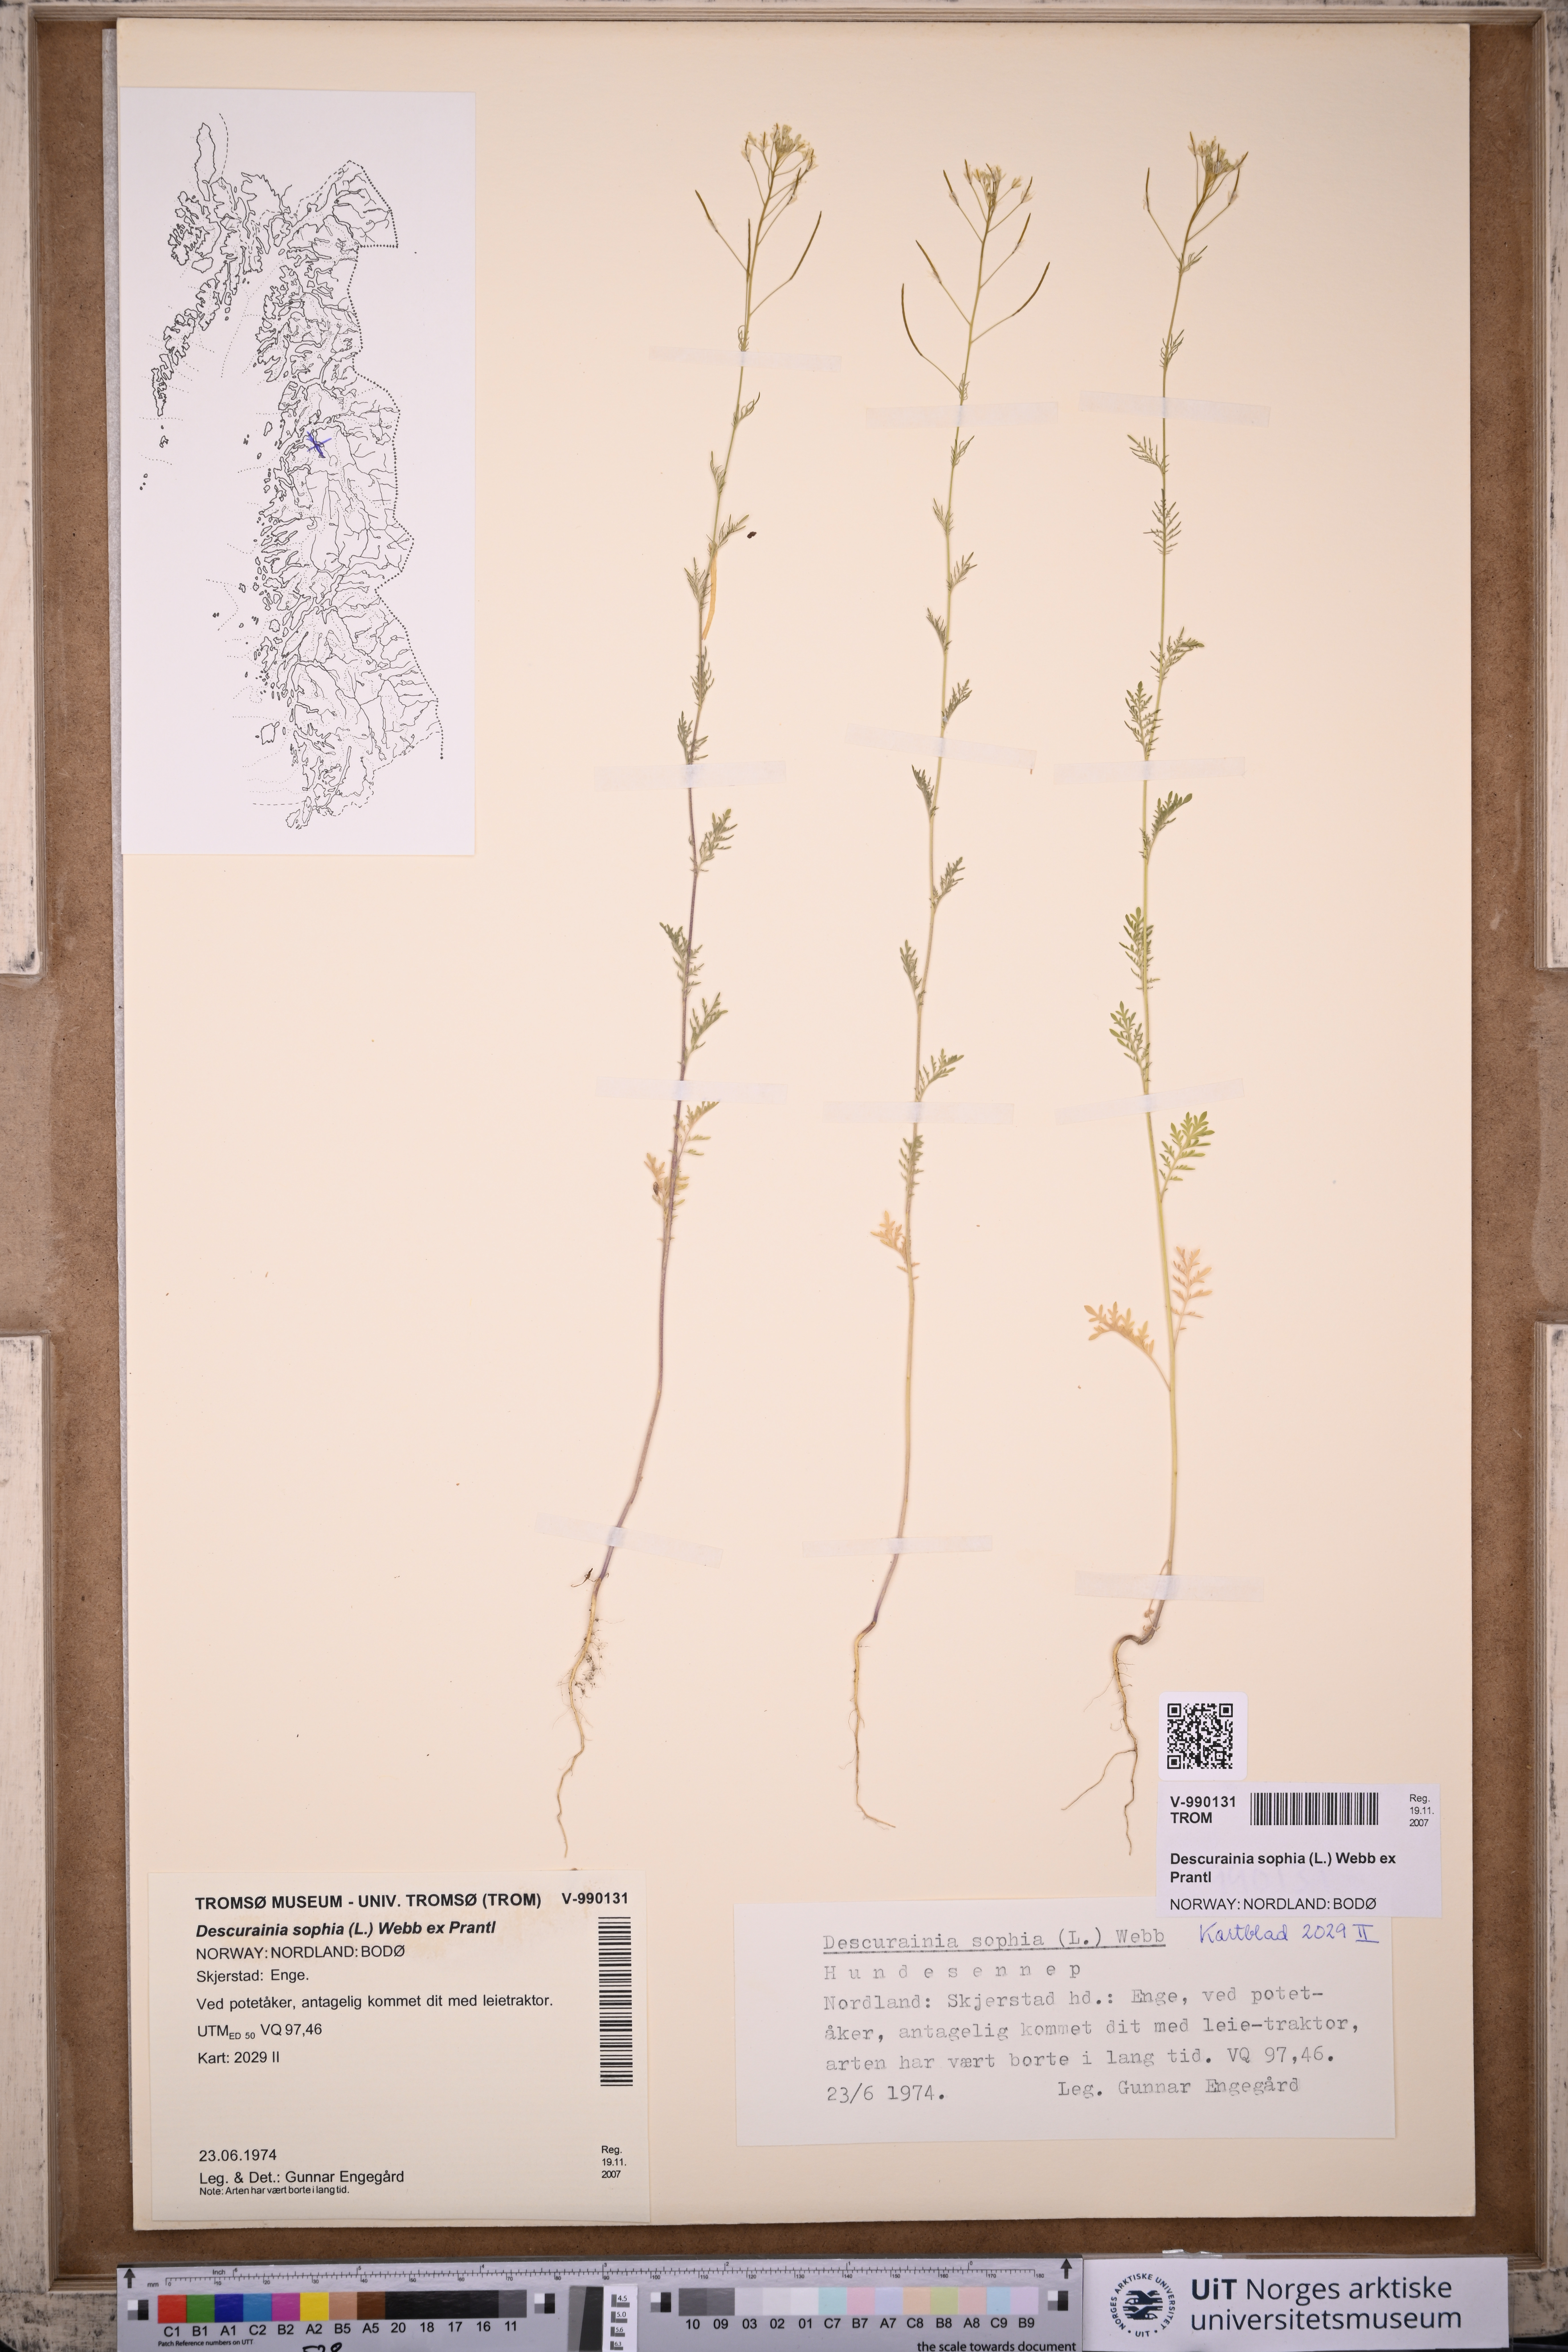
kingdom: Plantae
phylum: Tracheophyta
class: Magnoliopsida
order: Brassicales
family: Brassicaceae
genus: Descurainia
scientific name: Descurainia sophia
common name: Flixweed
